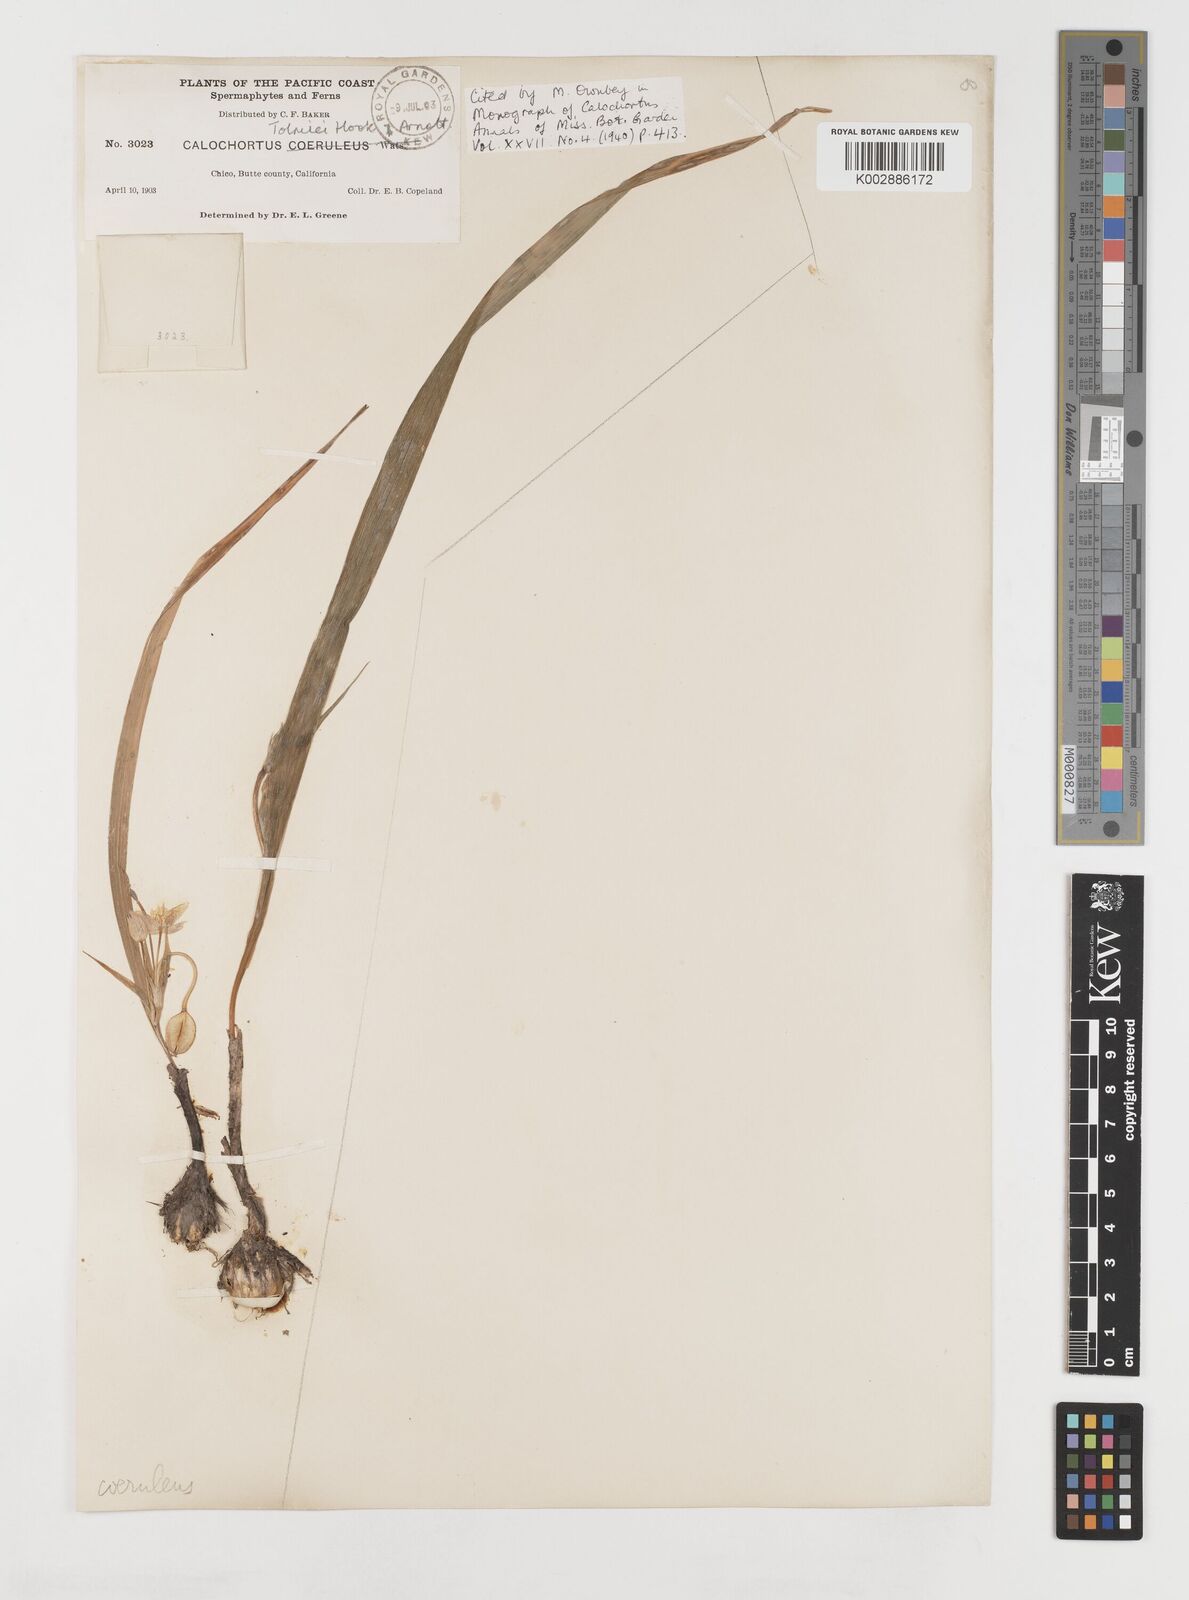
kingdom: Plantae
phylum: Tracheophyta
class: Liliopsida
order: Liliales
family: Liliaceae
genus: Calochortus
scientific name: Calochortus tolmiei
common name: Pussy-ears
